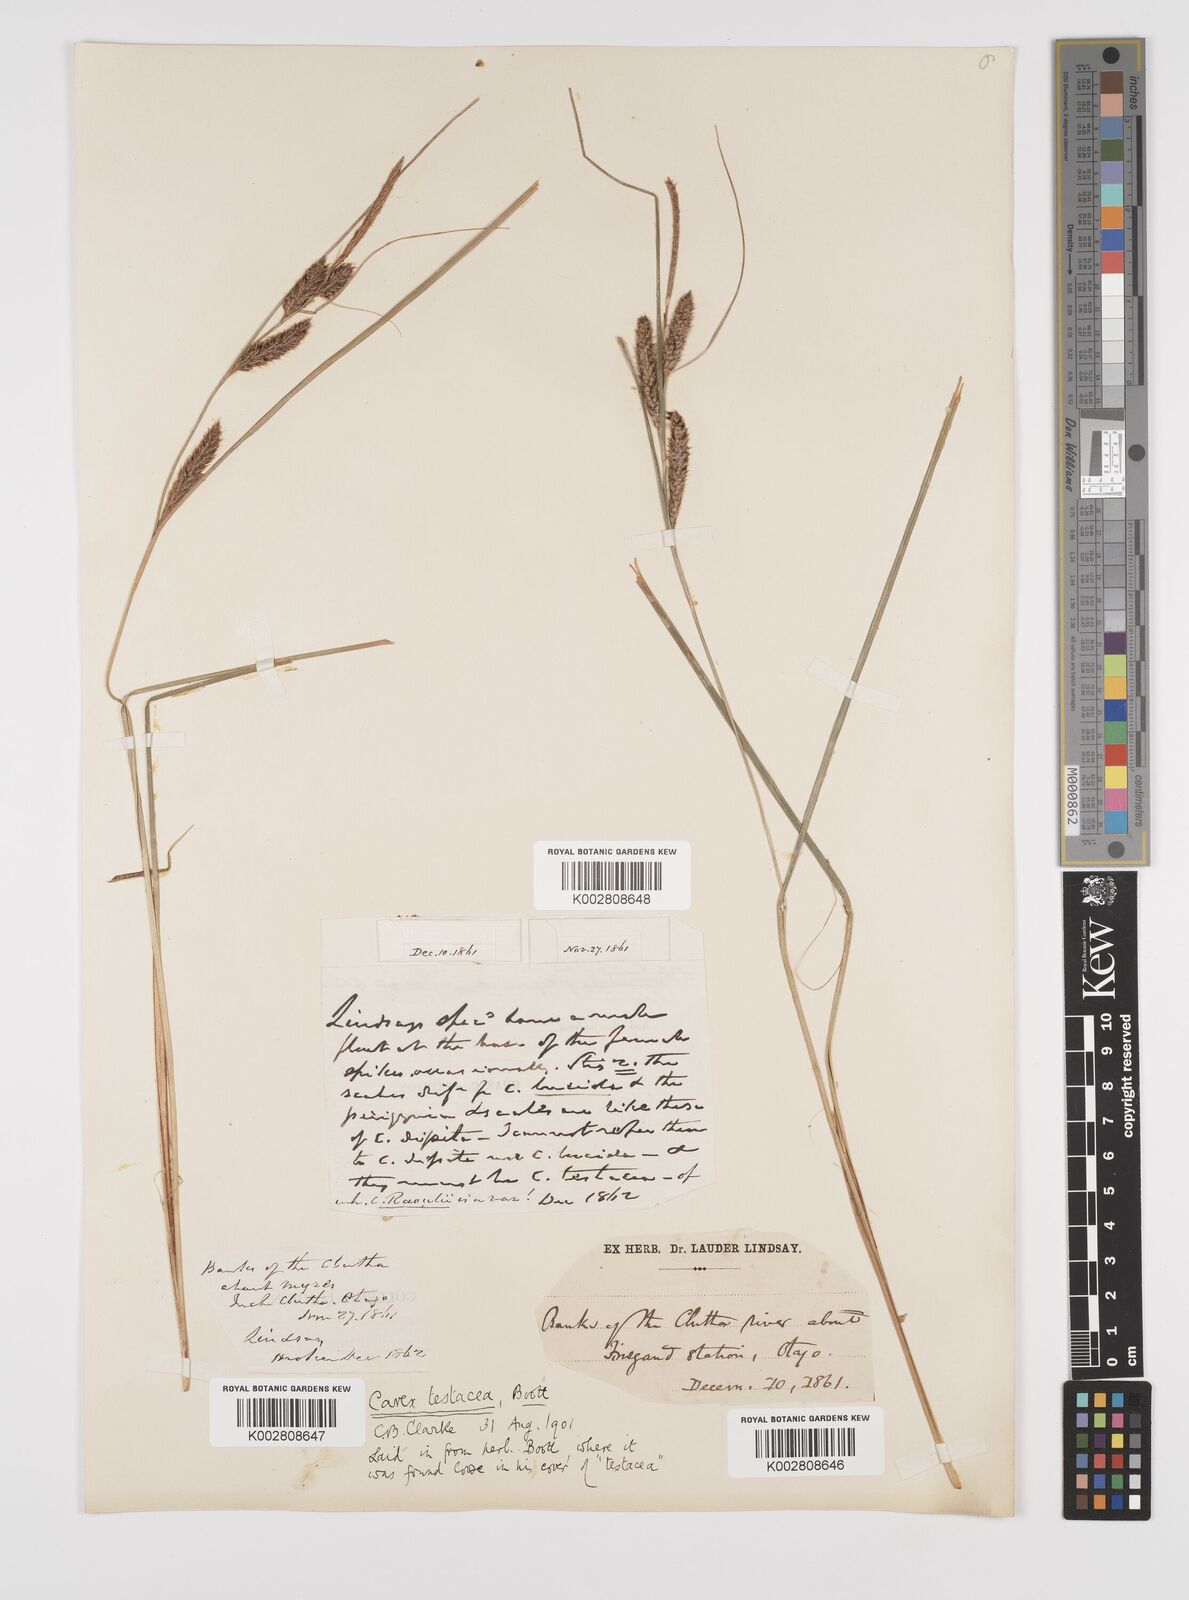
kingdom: Plantae
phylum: Tracheophyta
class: Liliopsida
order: Poales
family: Cyperaceae
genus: Carex
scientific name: Carex testacea
